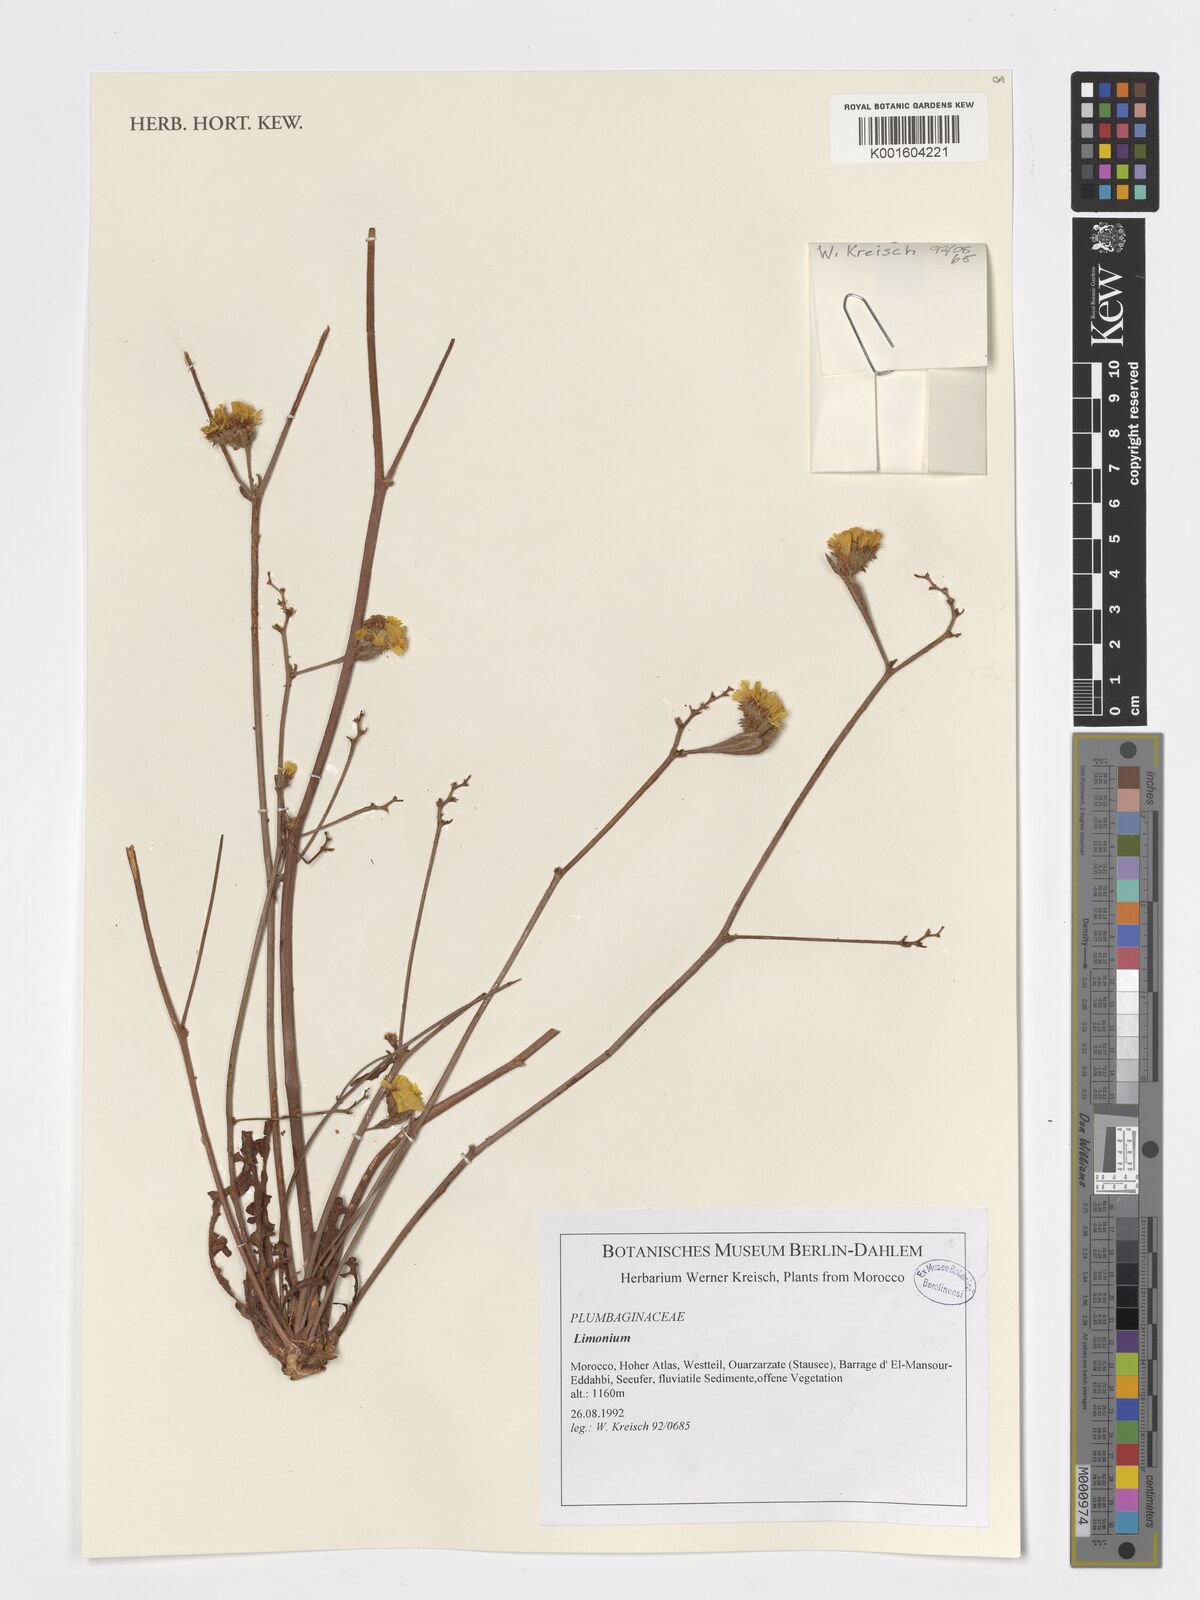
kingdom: Plantae
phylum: Tracheophyta
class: Magnoliopsida
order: Caryophyllales
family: Plumbaginaceae
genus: Limonium
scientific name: Limonium
